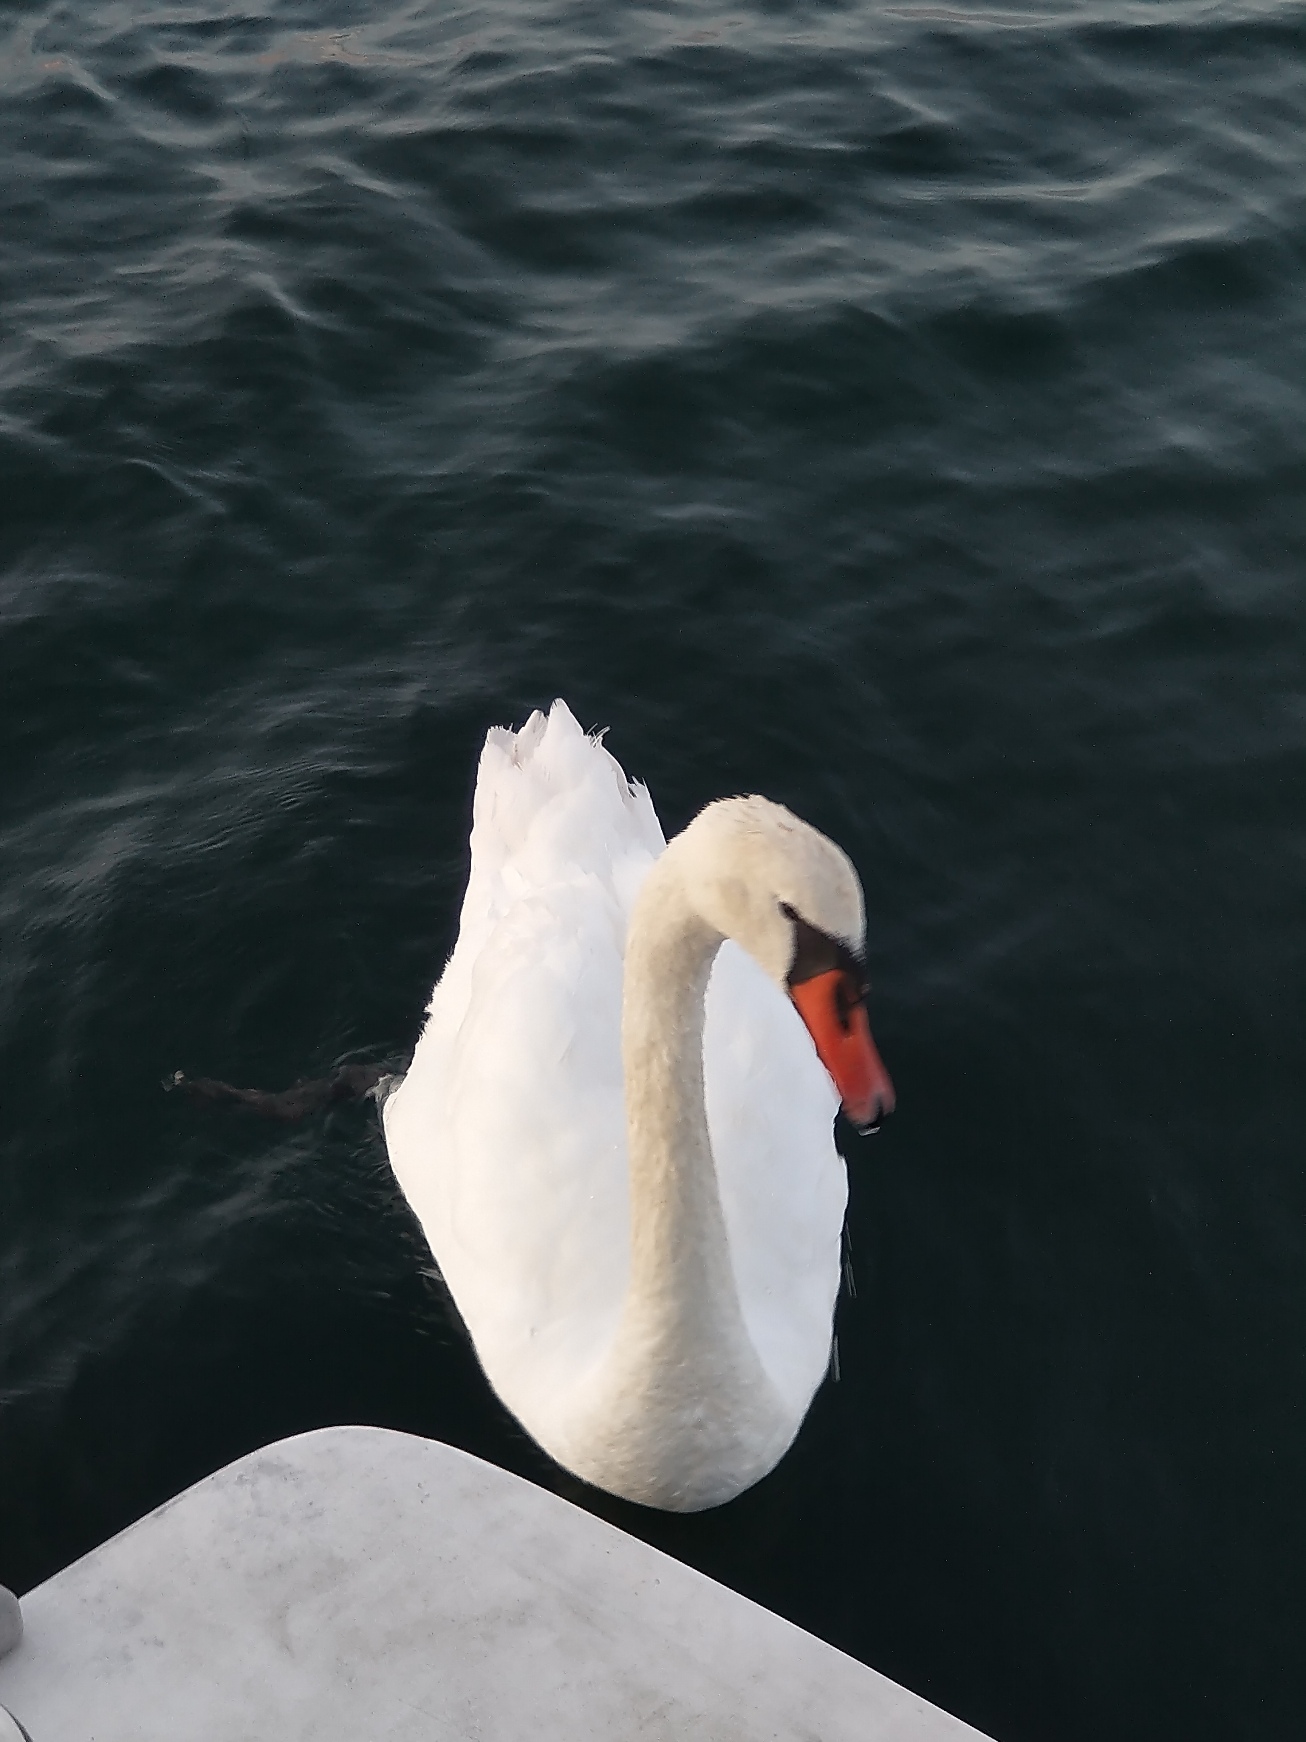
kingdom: Animalia
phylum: Chordata
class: Aves
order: Anseriformes
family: Anatidae
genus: Cygnus
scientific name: Cygnus olor
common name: Knopsvane
